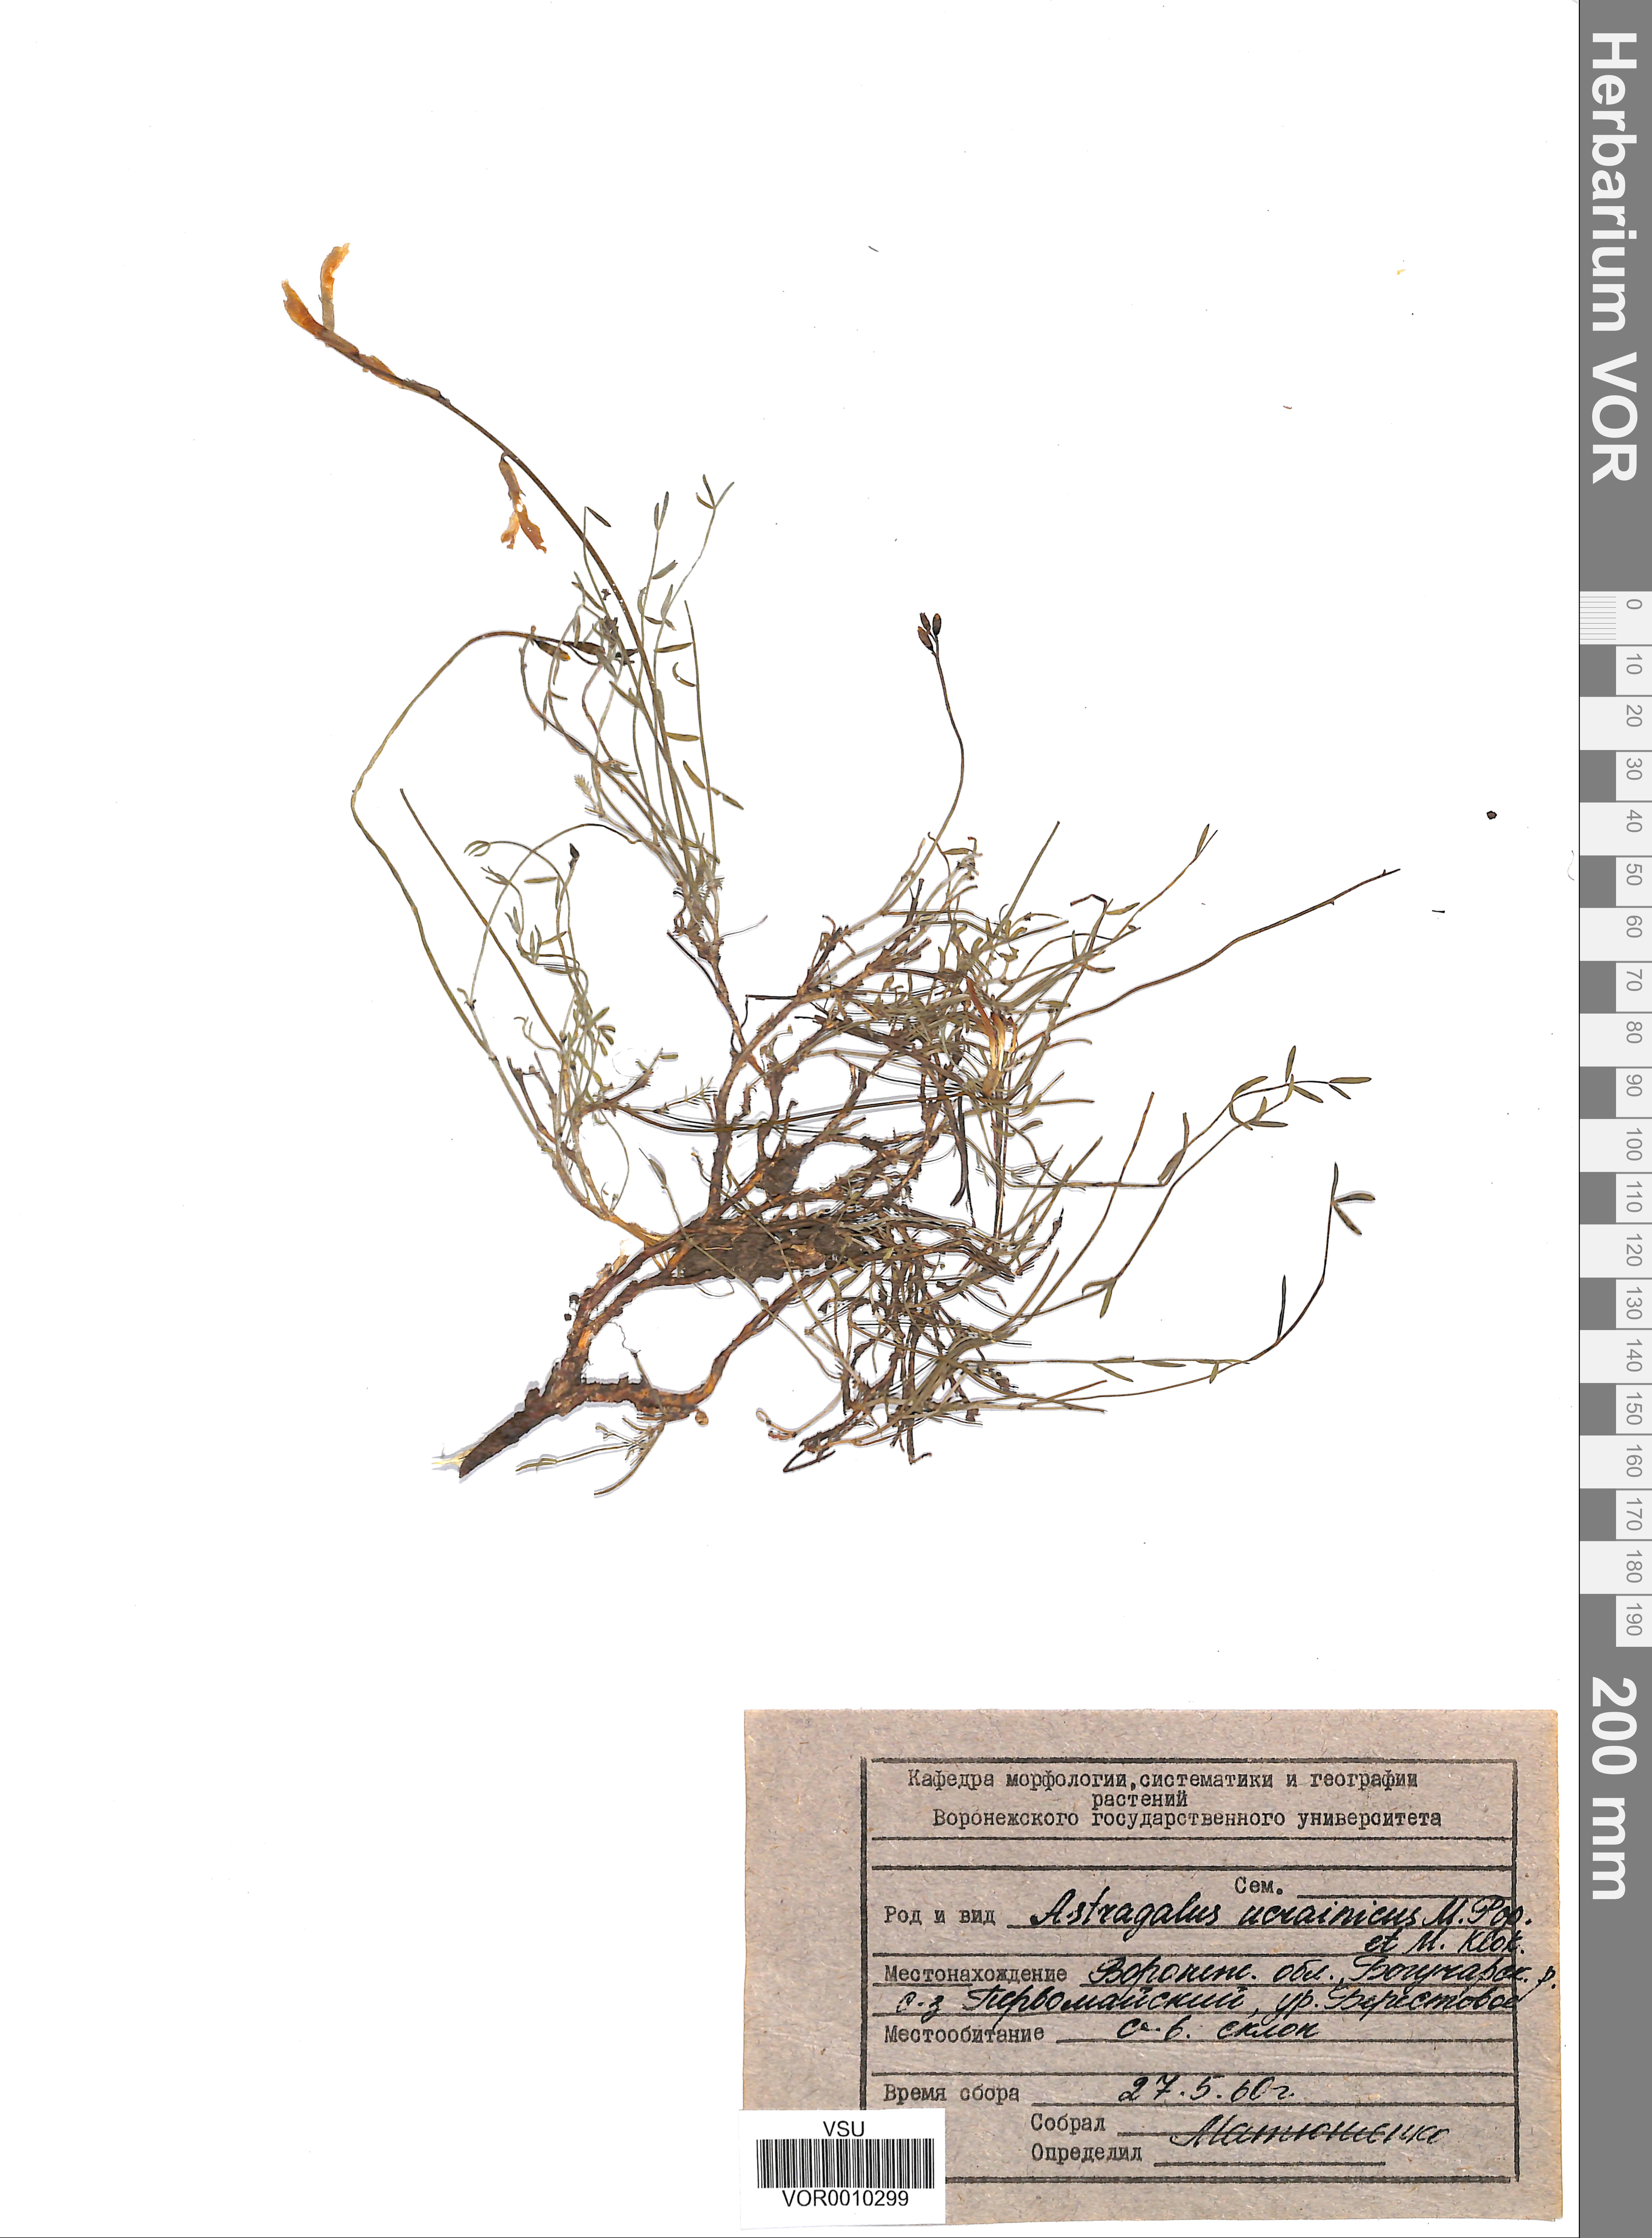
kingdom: Plantae
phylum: Tracheophyta
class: Magnoliopsida
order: Fabales
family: Fabaceae
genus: Astragalus
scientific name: Astragalus ucrainicus
